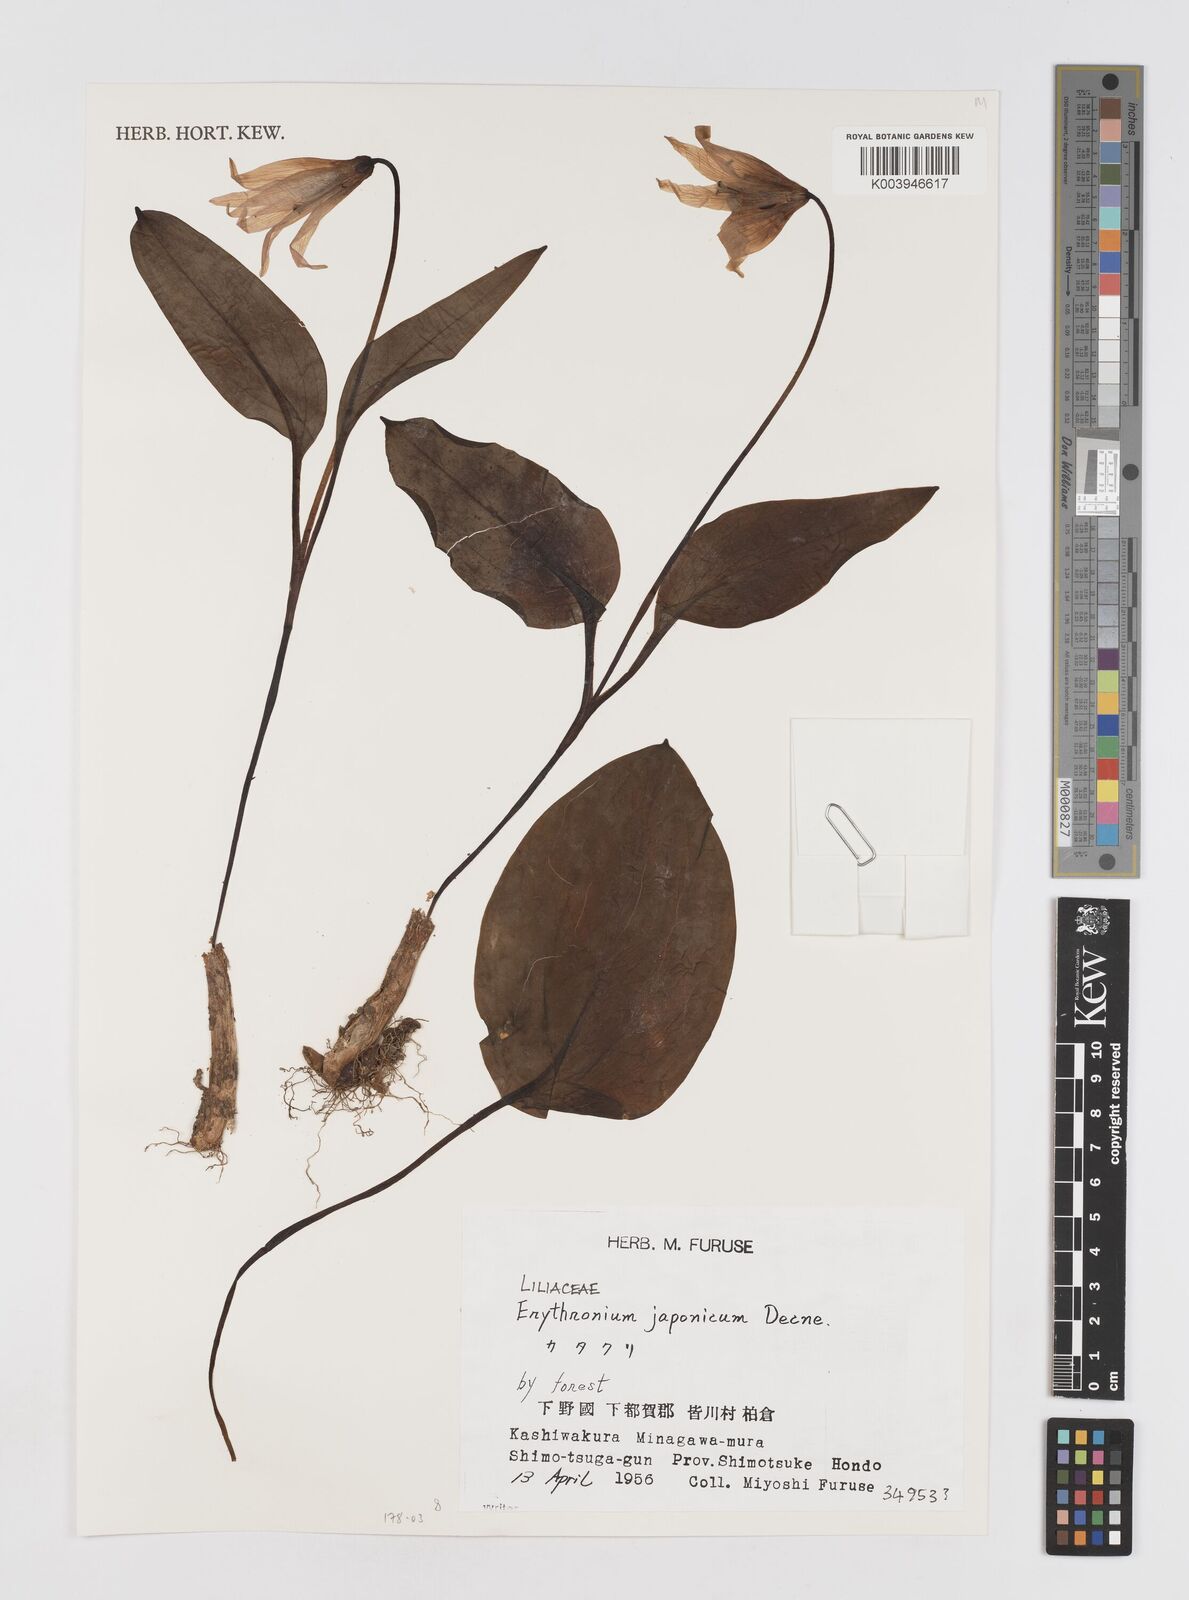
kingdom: Plantae
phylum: Tracheophyta
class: Liliopsida
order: Liliales
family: Liliaceae
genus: Erythronium
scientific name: Erythronium japonicum
